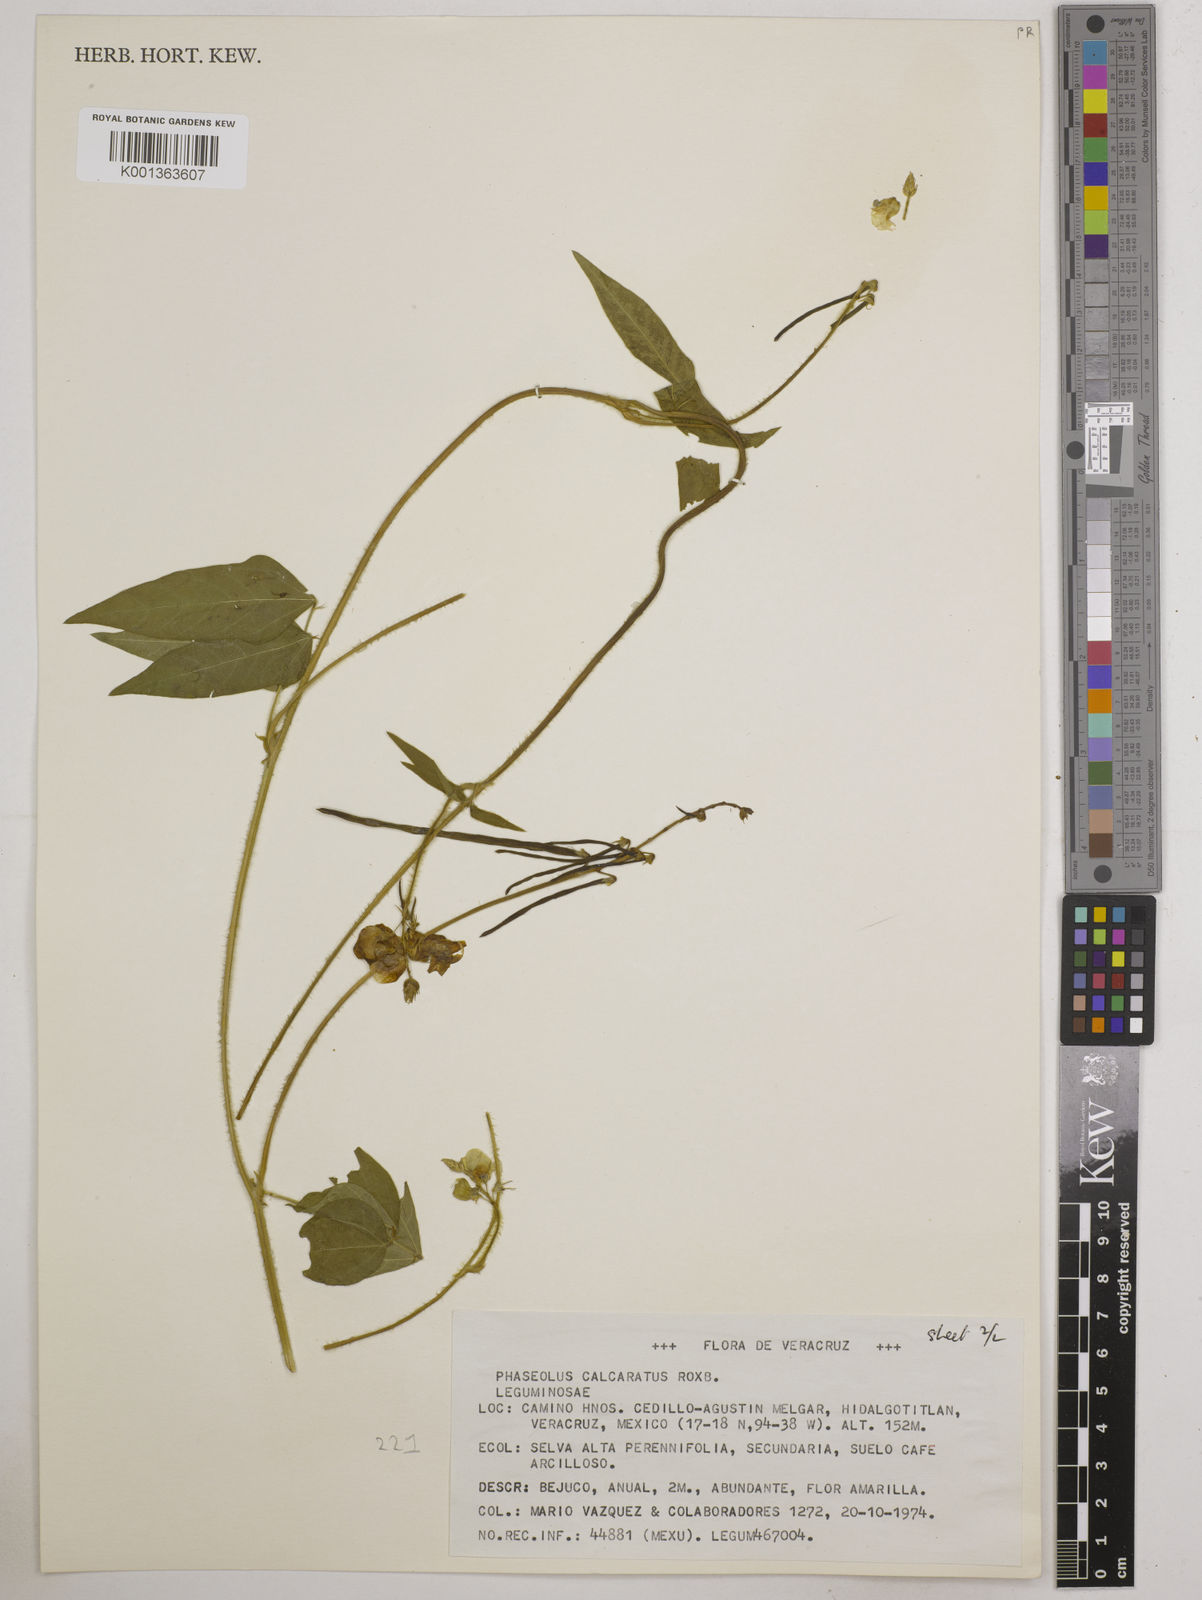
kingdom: Plantae
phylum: Tracheophyta
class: Magnoliopsida
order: Fabales
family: Fabaceae
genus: Vigna
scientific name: Vigna umbellata
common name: Oriental-bean
